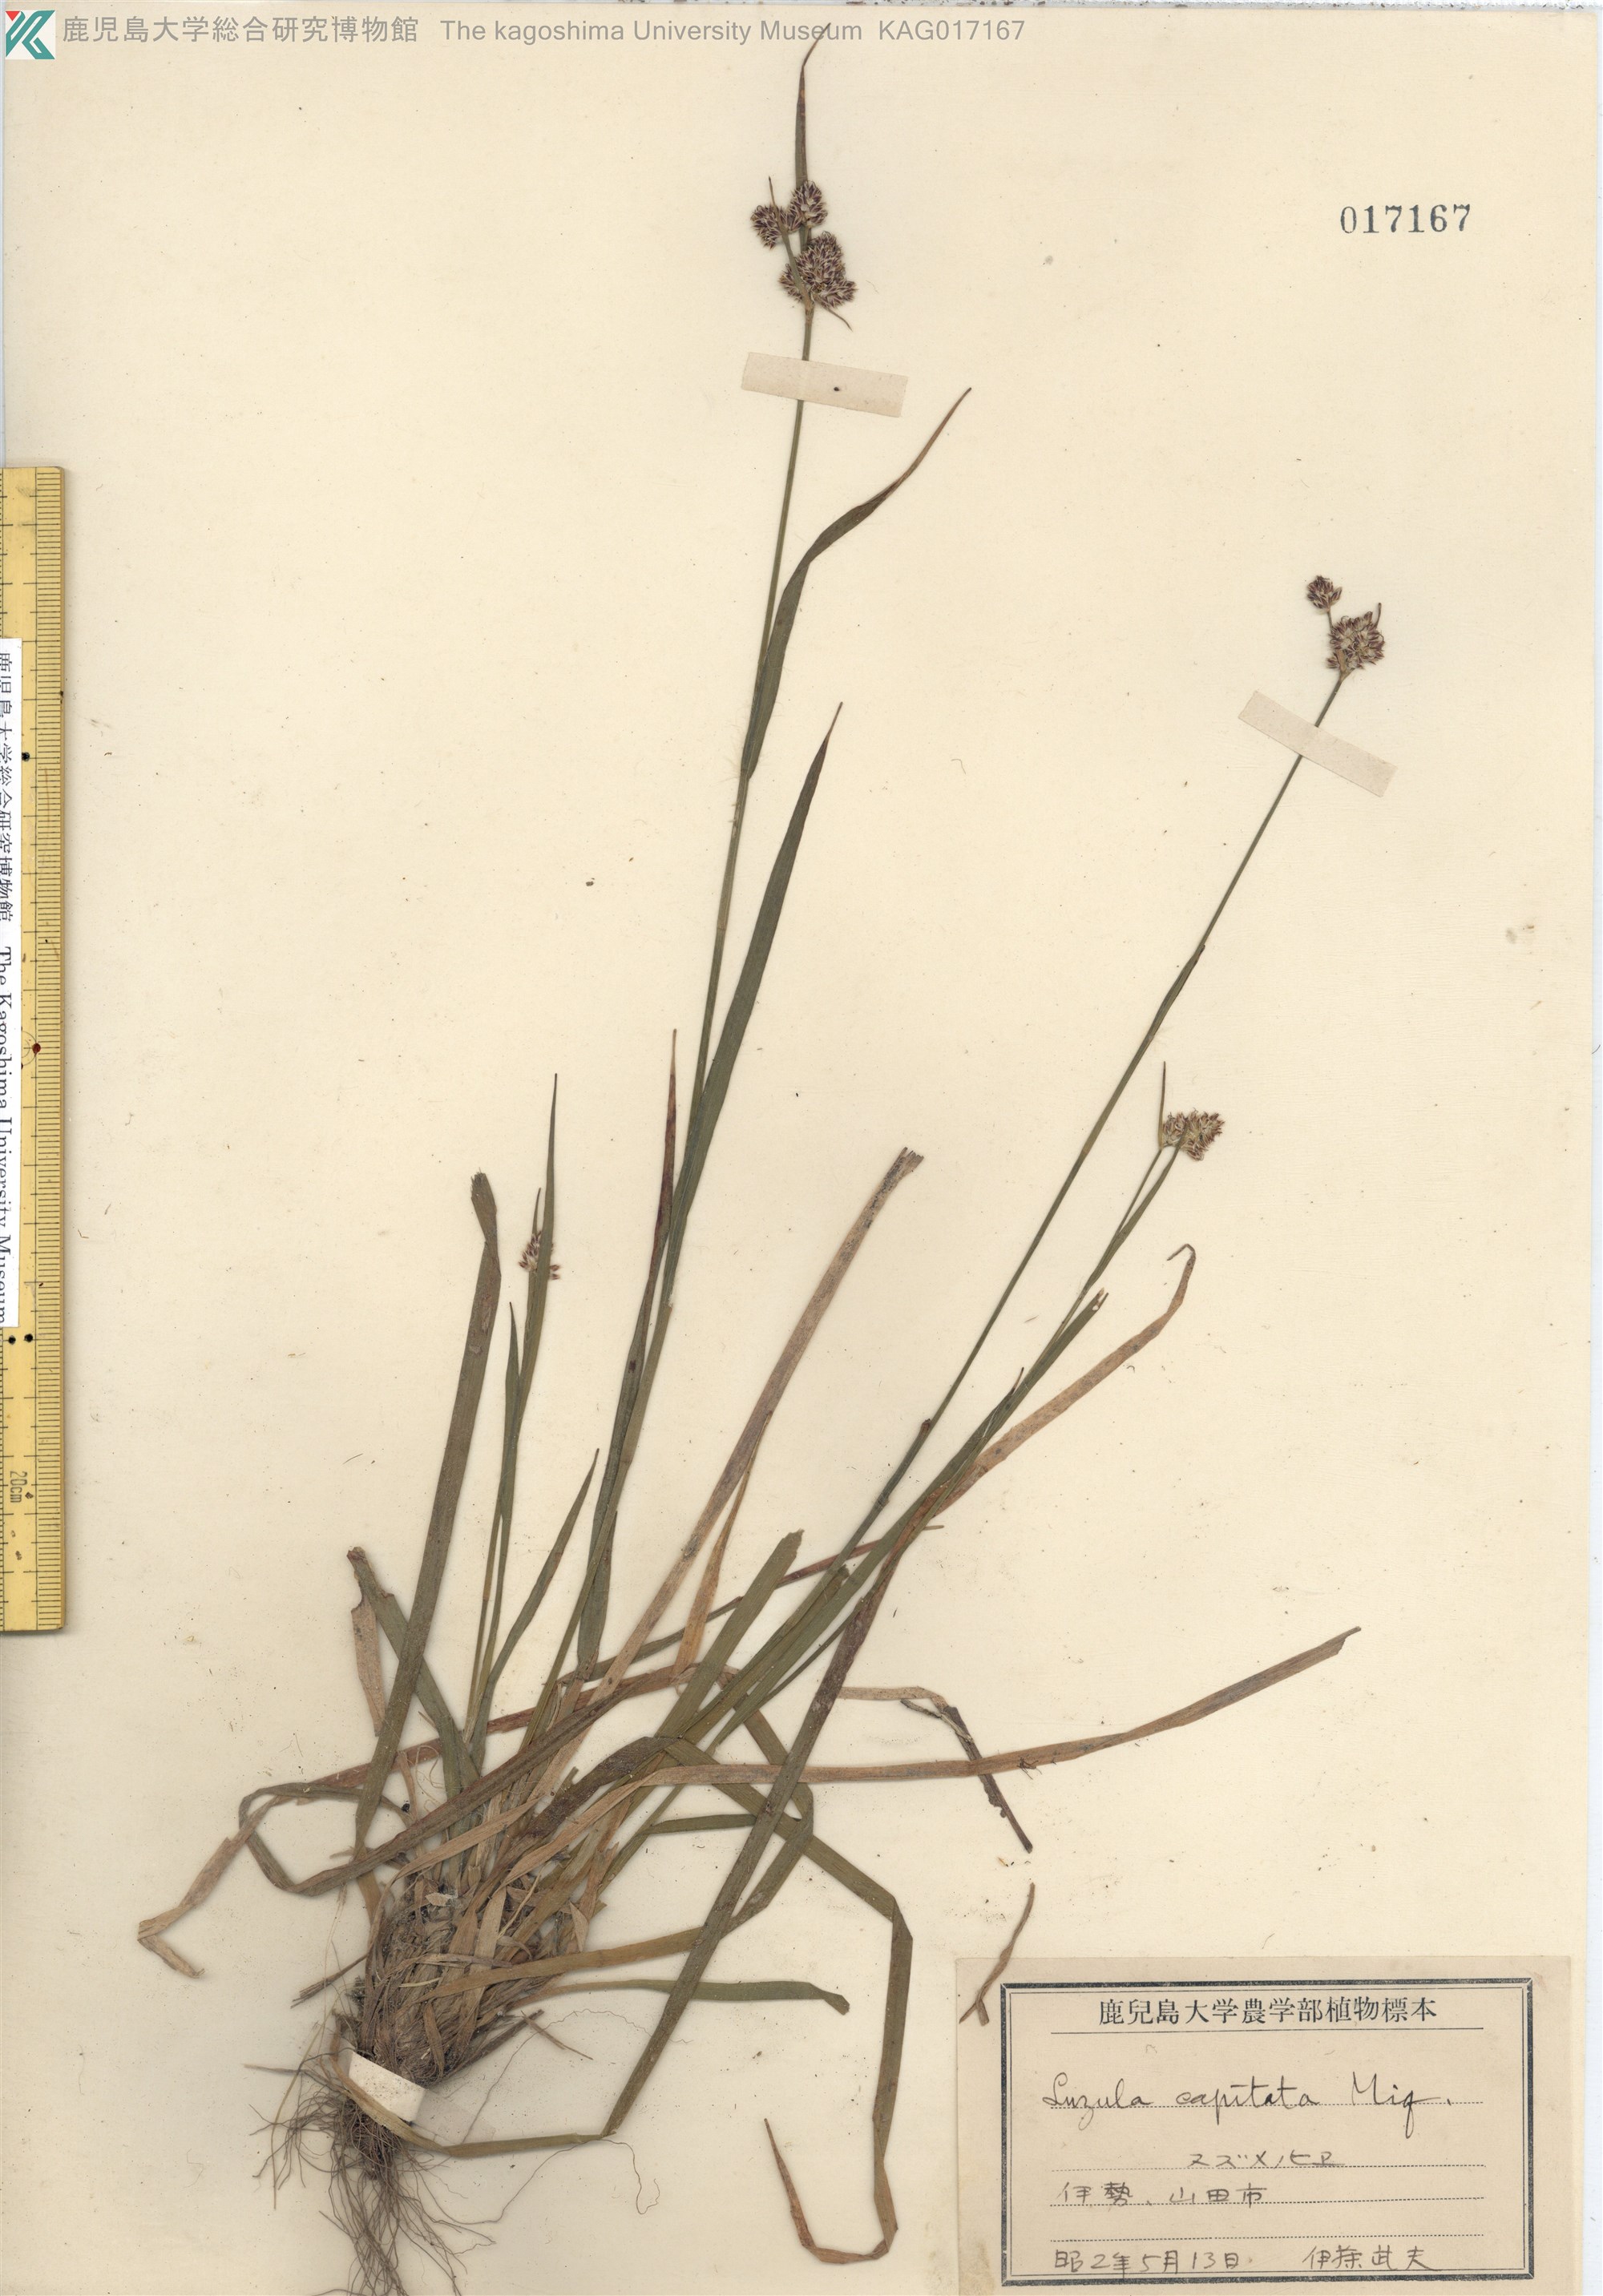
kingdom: Plantae
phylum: Tracheophyta
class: Liliopsida
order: Poales
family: Juncaceae
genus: Luzula
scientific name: Luzula capitata
